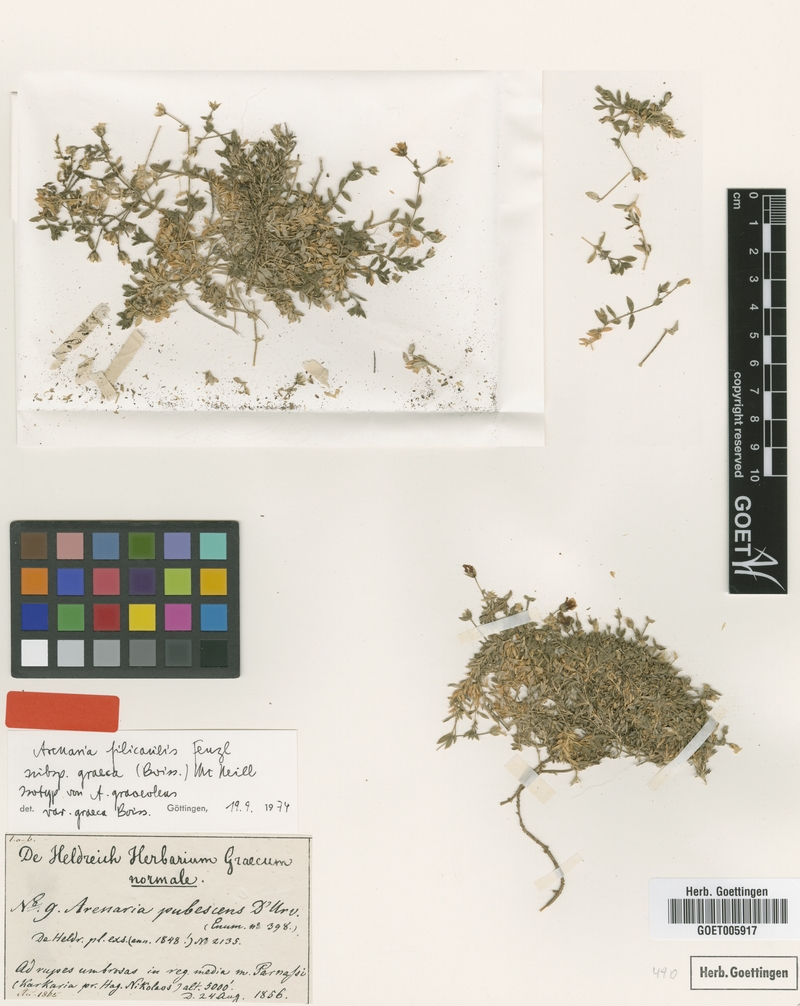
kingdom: Plantae
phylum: Tracheophyta
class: Magnoliopsida
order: Caryophyllales
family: Caryophyllaceae
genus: Arenaria
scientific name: Arenaria filicaulis
